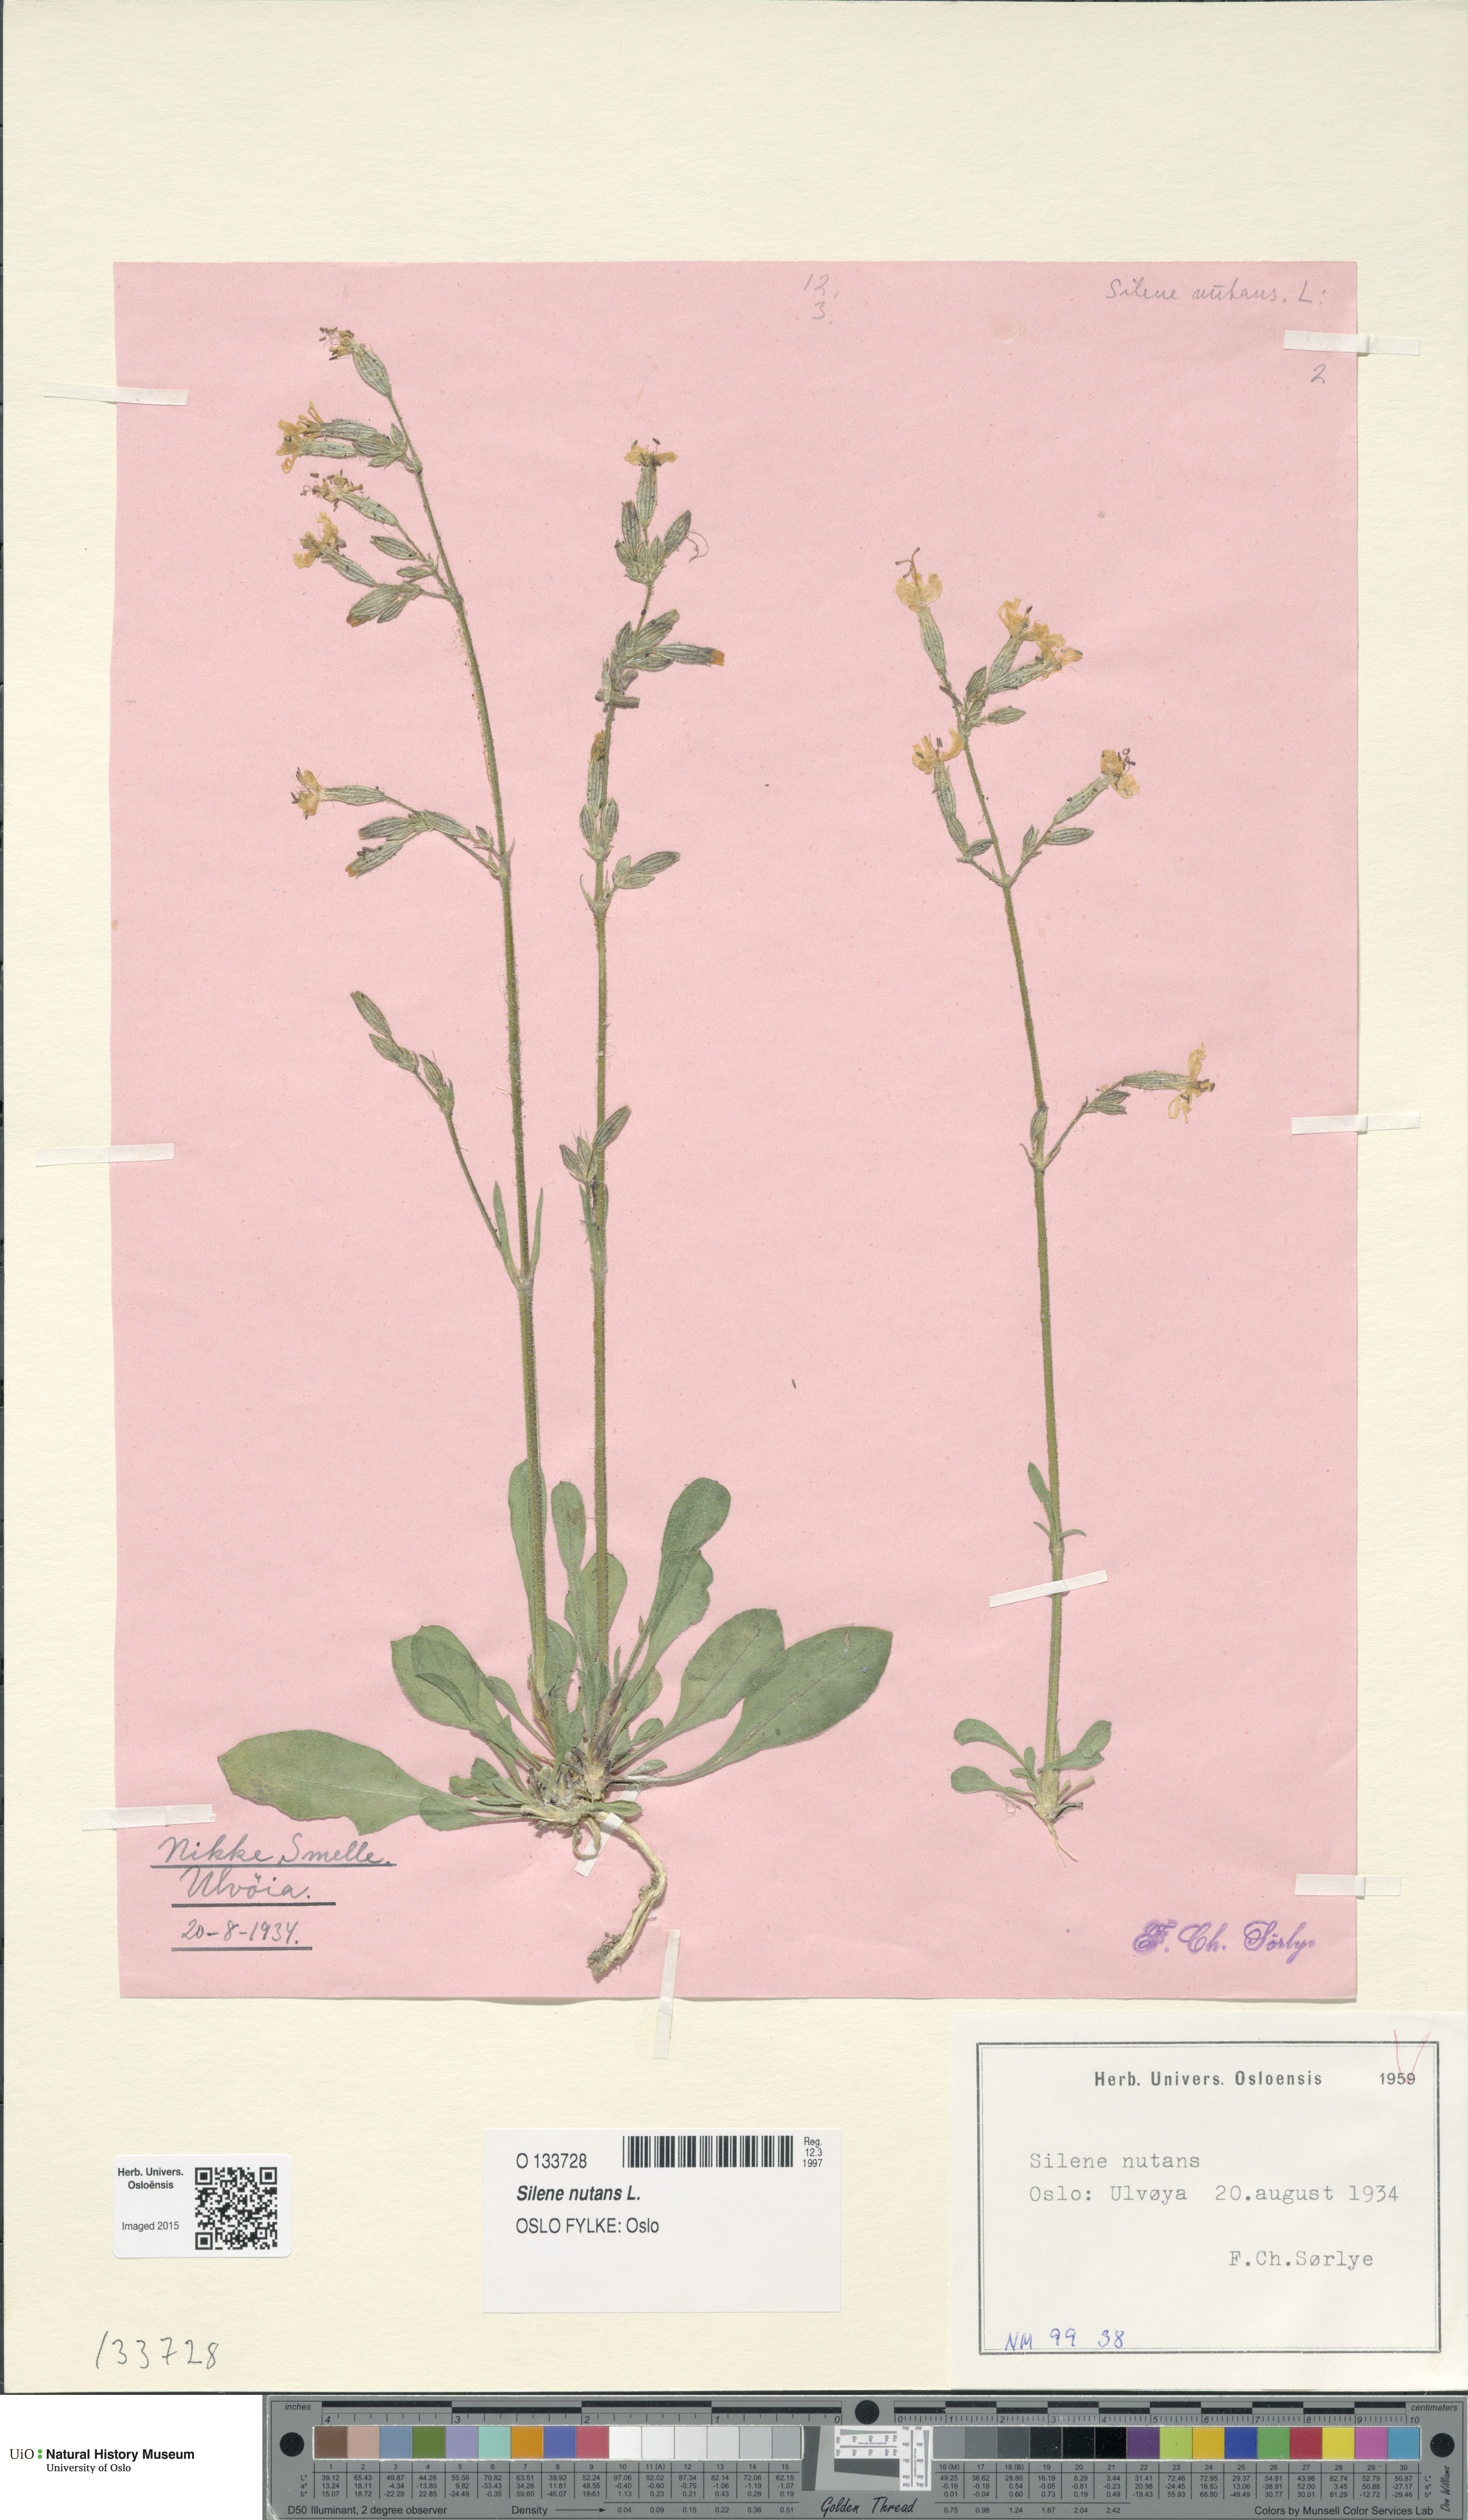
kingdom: Plantae
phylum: Tracheophyta
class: Magnoliopsida
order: Caryophyllales
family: Caryophyllaceae
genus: Silene
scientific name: Silene nutans
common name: Nottingham catchfly
